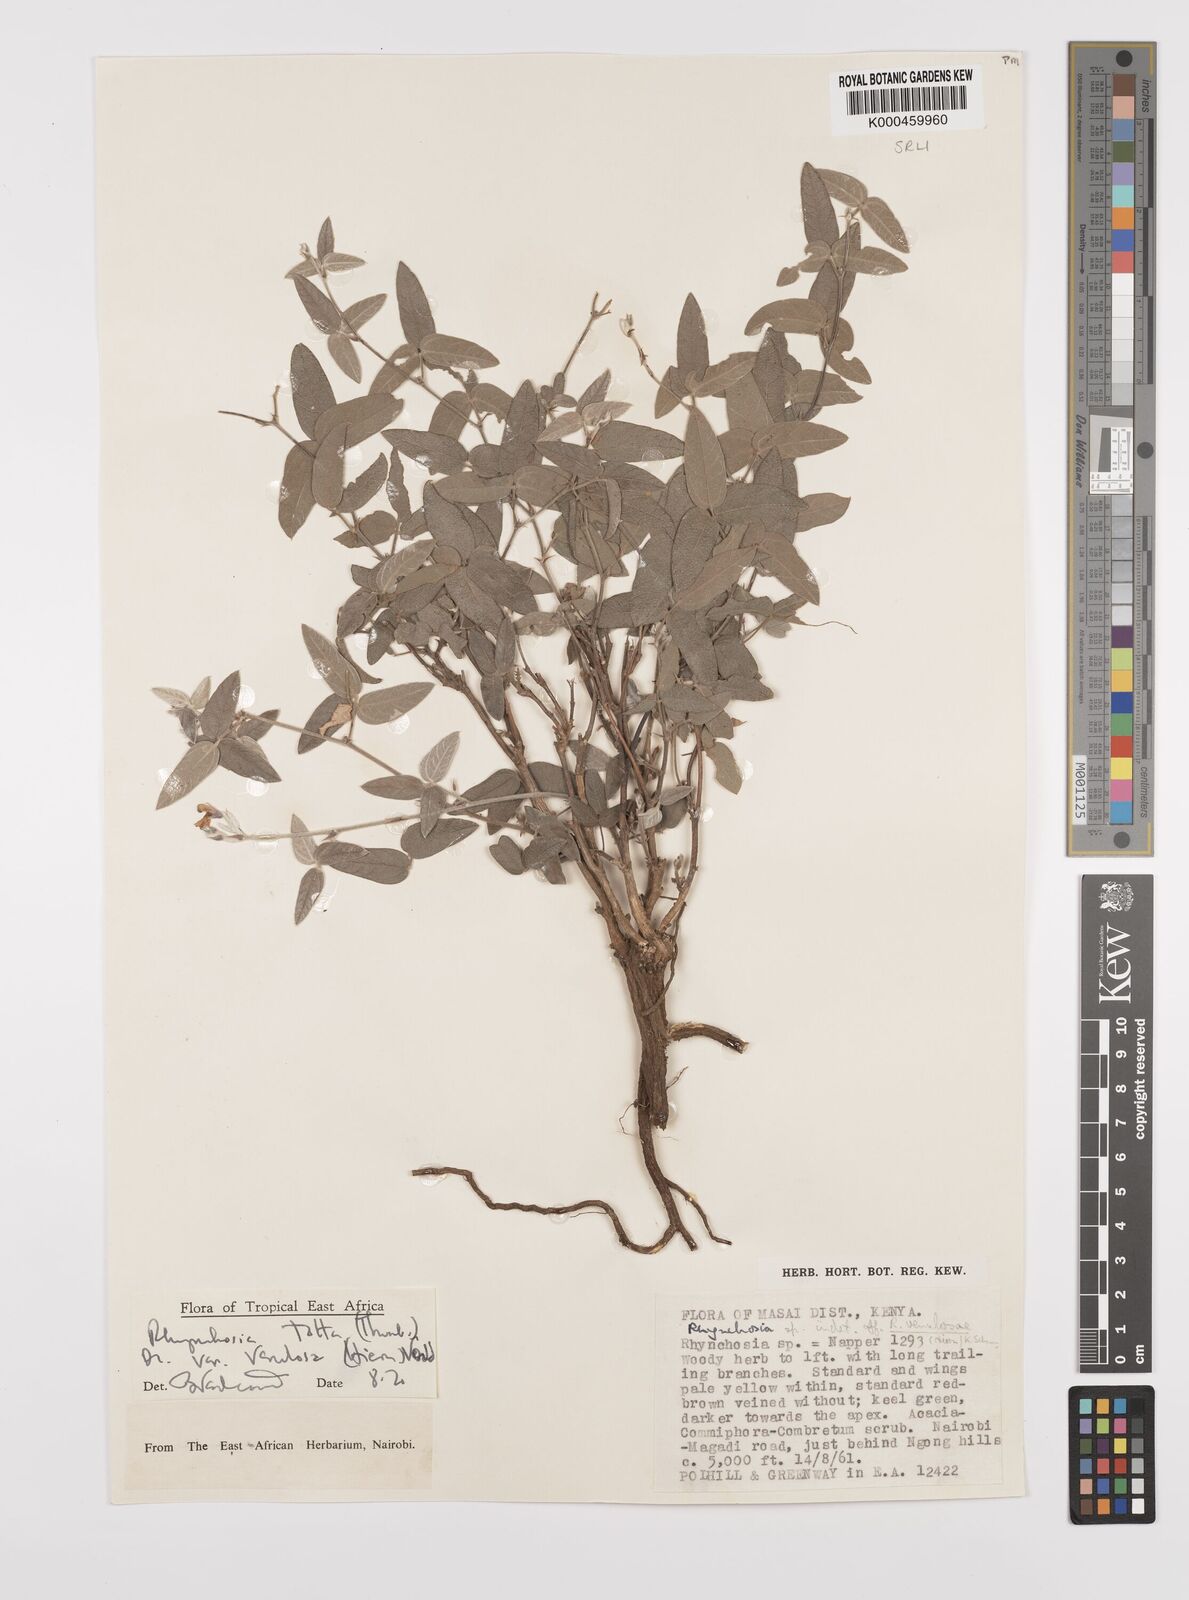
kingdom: Plantae
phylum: Tracheophyta
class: Magnoliopsida
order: Fabales
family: Fabaceae
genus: Rhynchosia
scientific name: Rhynchosia totta
